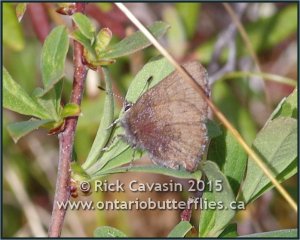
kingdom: Animalia
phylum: Arthropoda
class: Insecta
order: Lepidoptera
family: Lycaenidae
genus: Incisalia
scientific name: Incisalia irioides
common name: Brown Elfin
